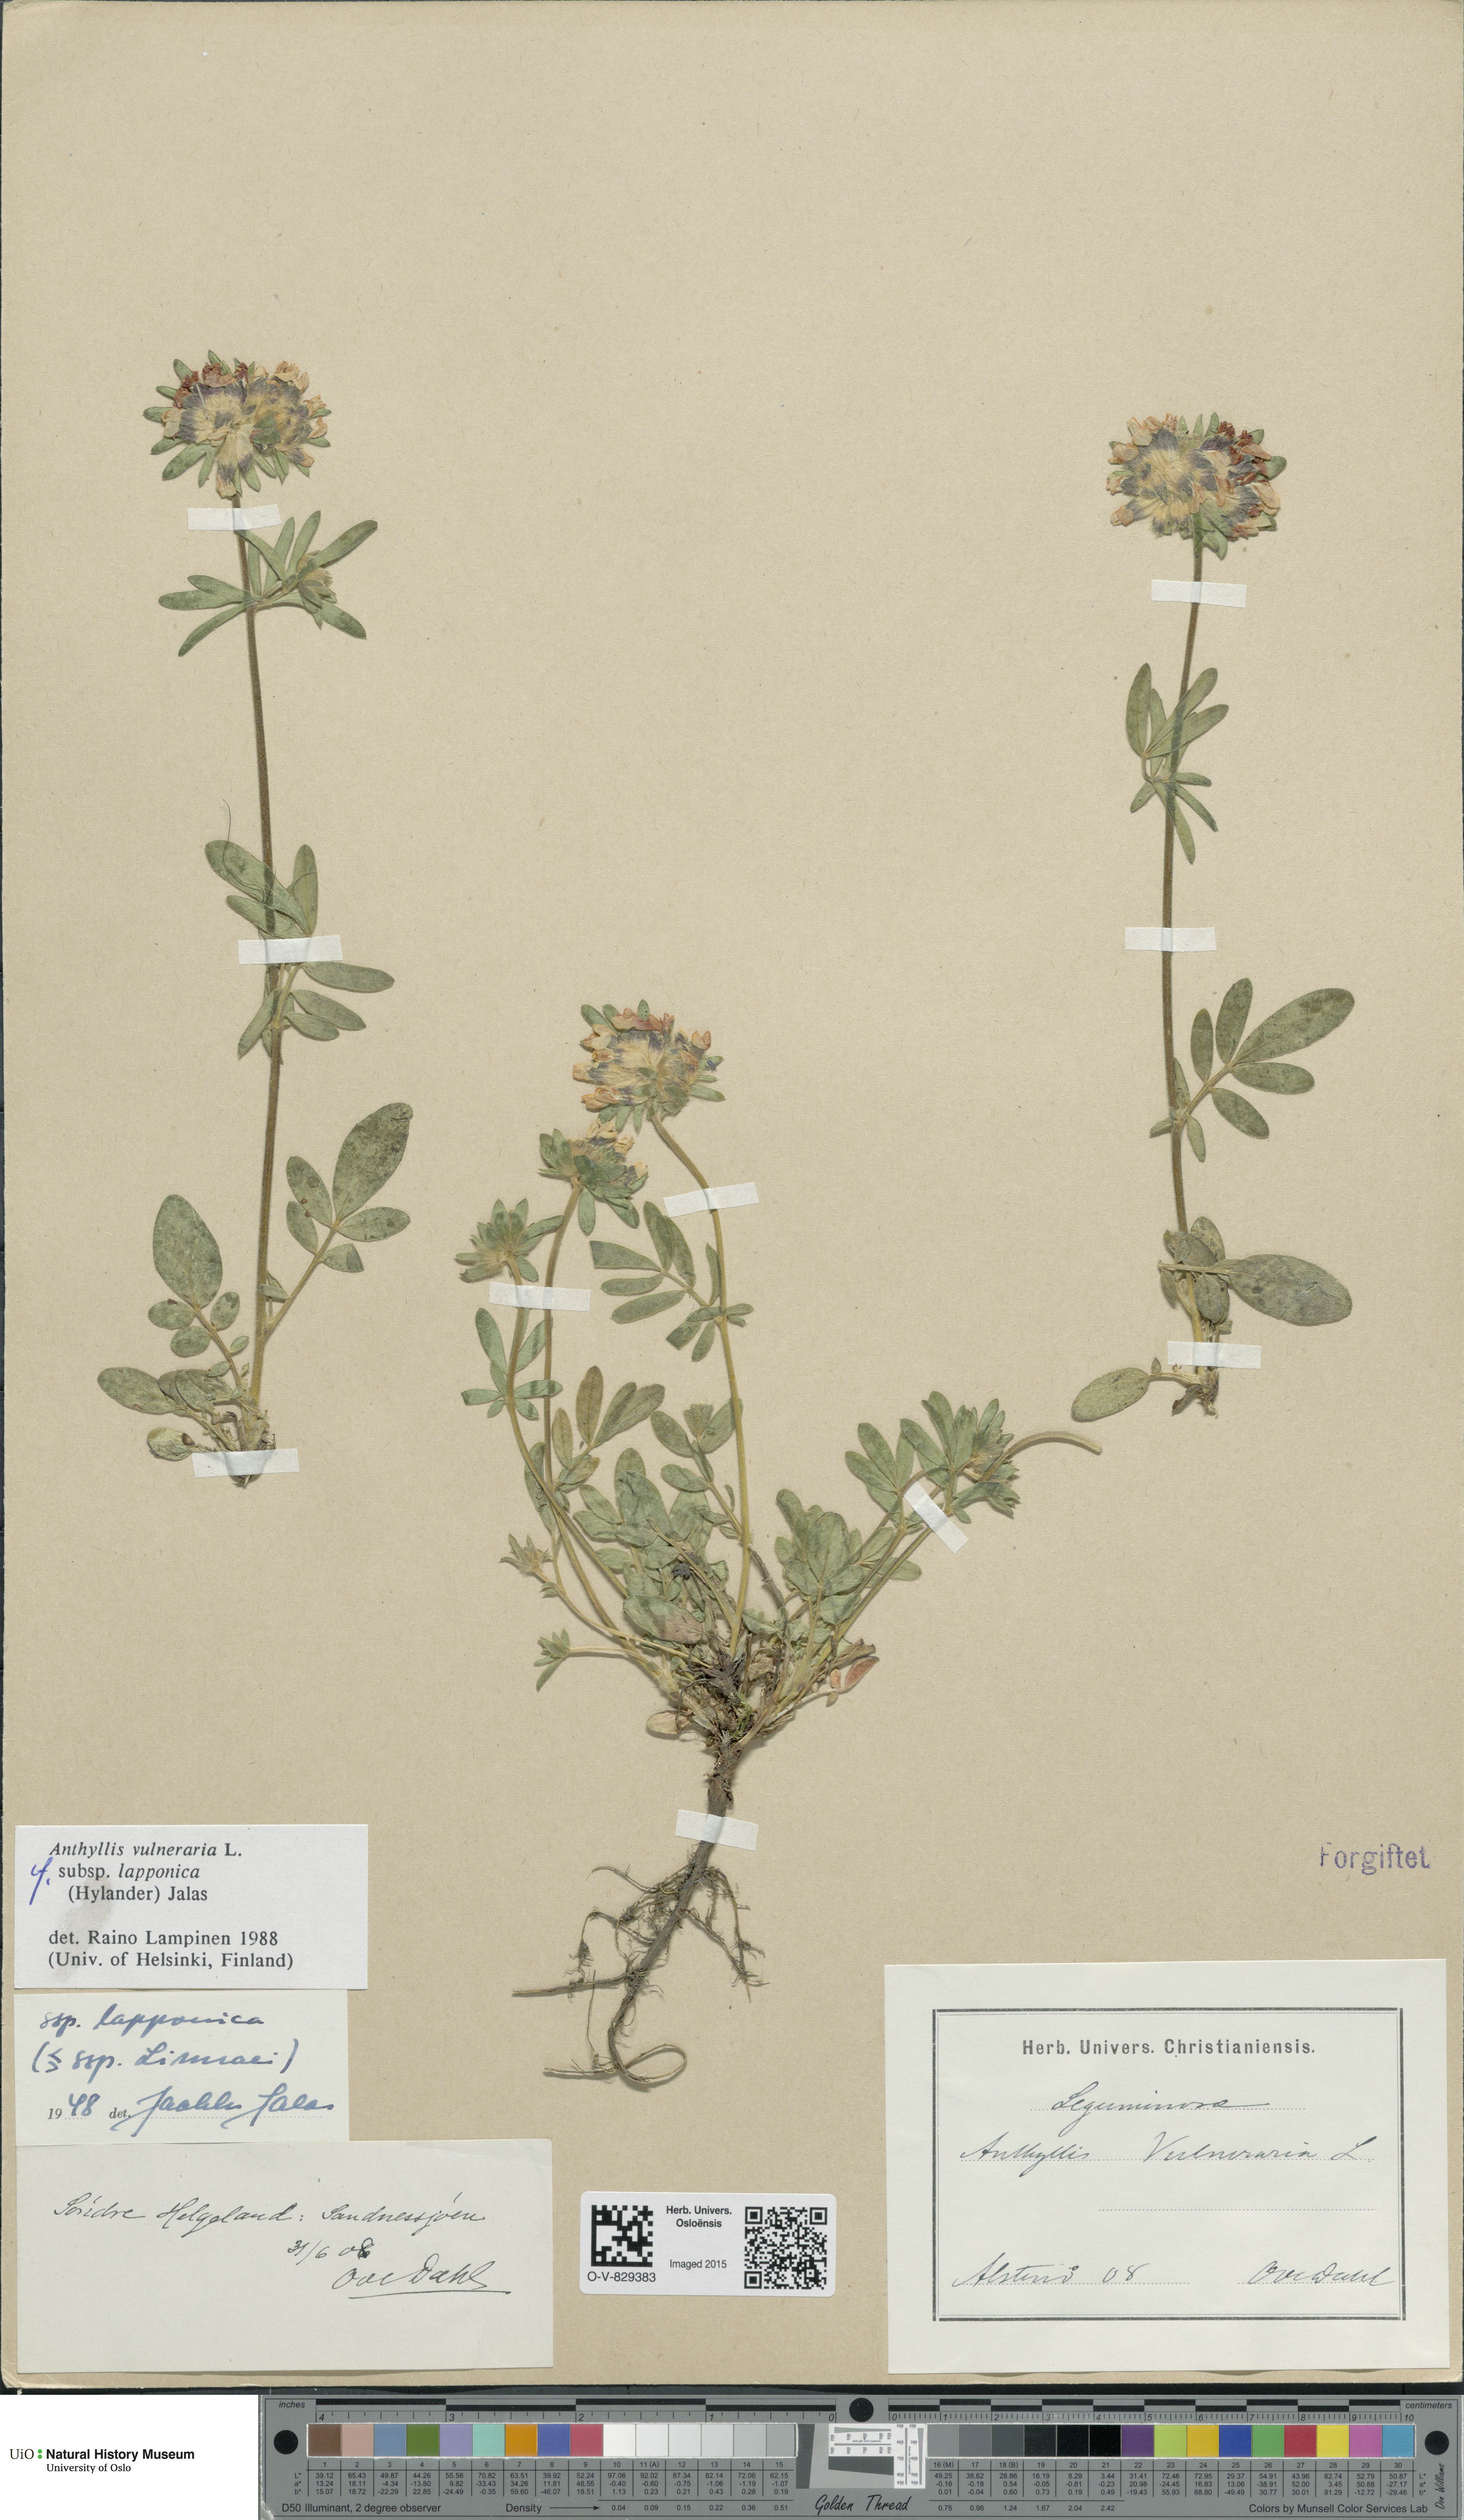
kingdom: Plantae
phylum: Tracheophyta
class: Magnoliopsida
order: Fabales
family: Fabaceae
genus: Anthyllis
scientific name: Anthyllis vulneraria
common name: Kidney vetch
